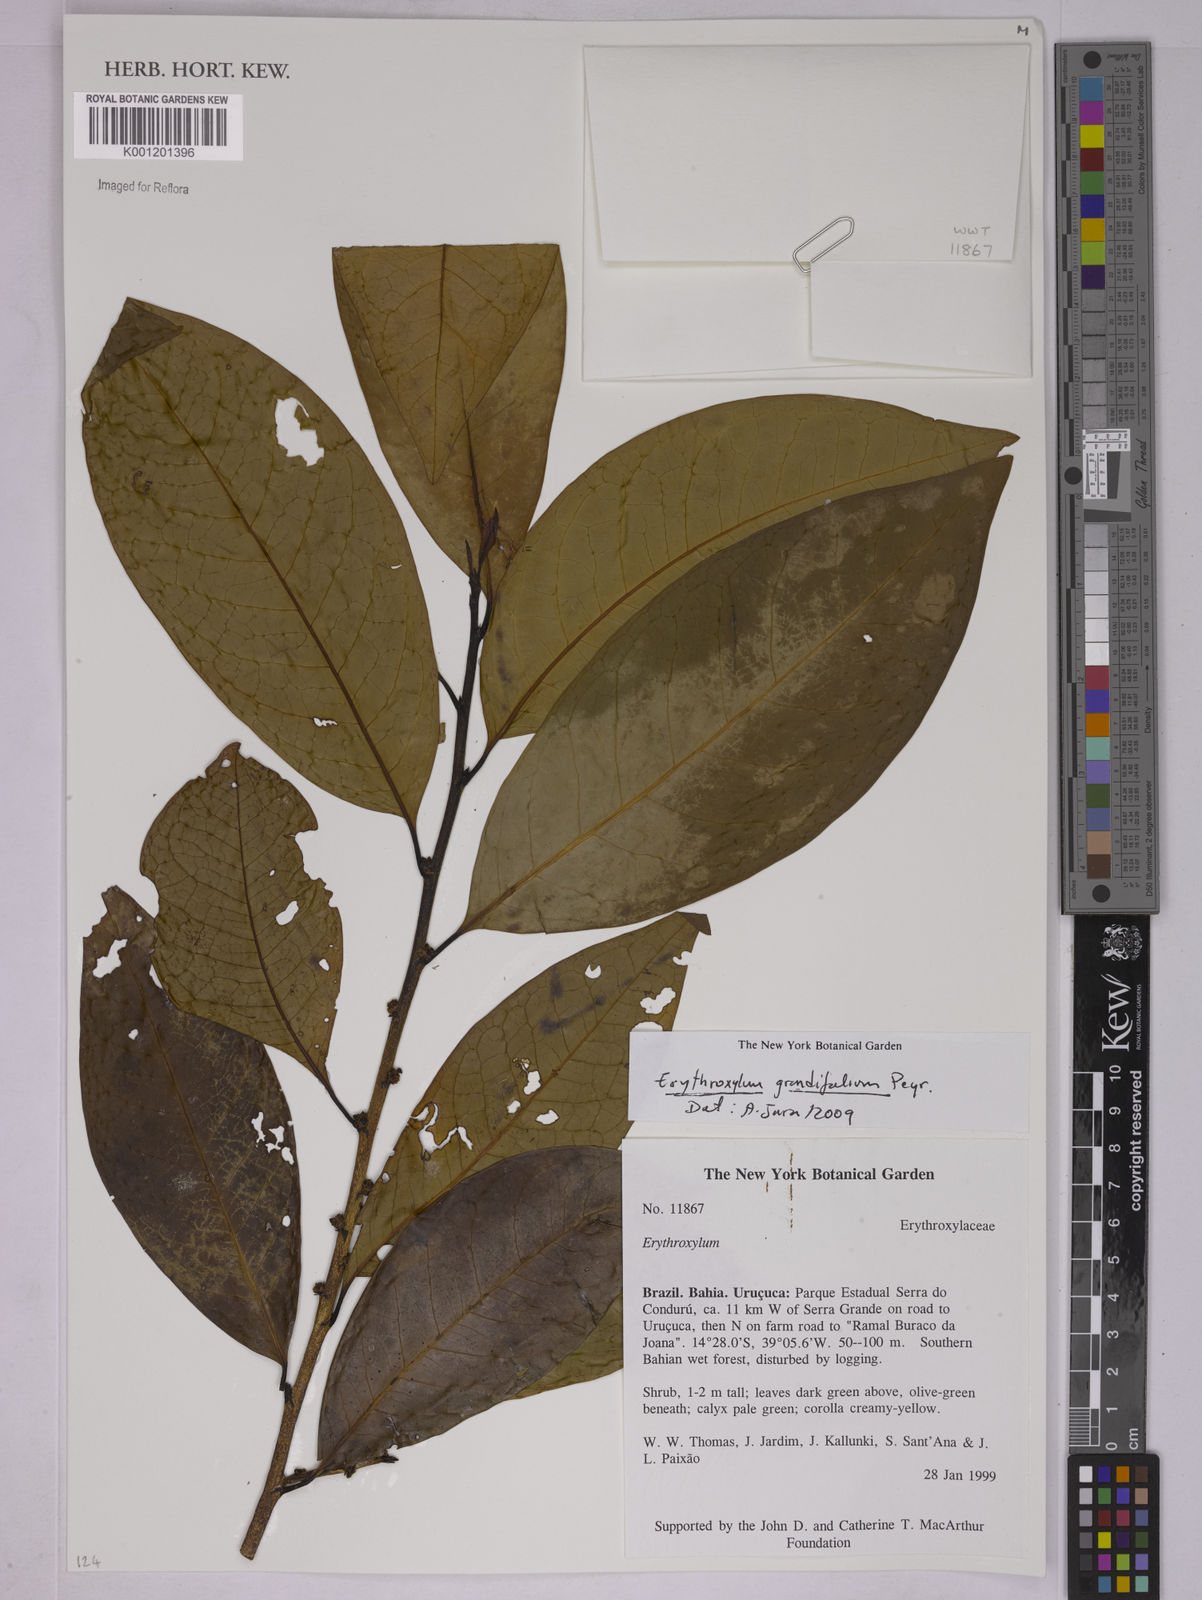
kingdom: Plantae
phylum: Tracheophyta
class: Magnoliopsida
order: Malpighiales
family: Erythroxylaceae
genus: Erythroxylum
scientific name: Erythroxylum grandifolium
